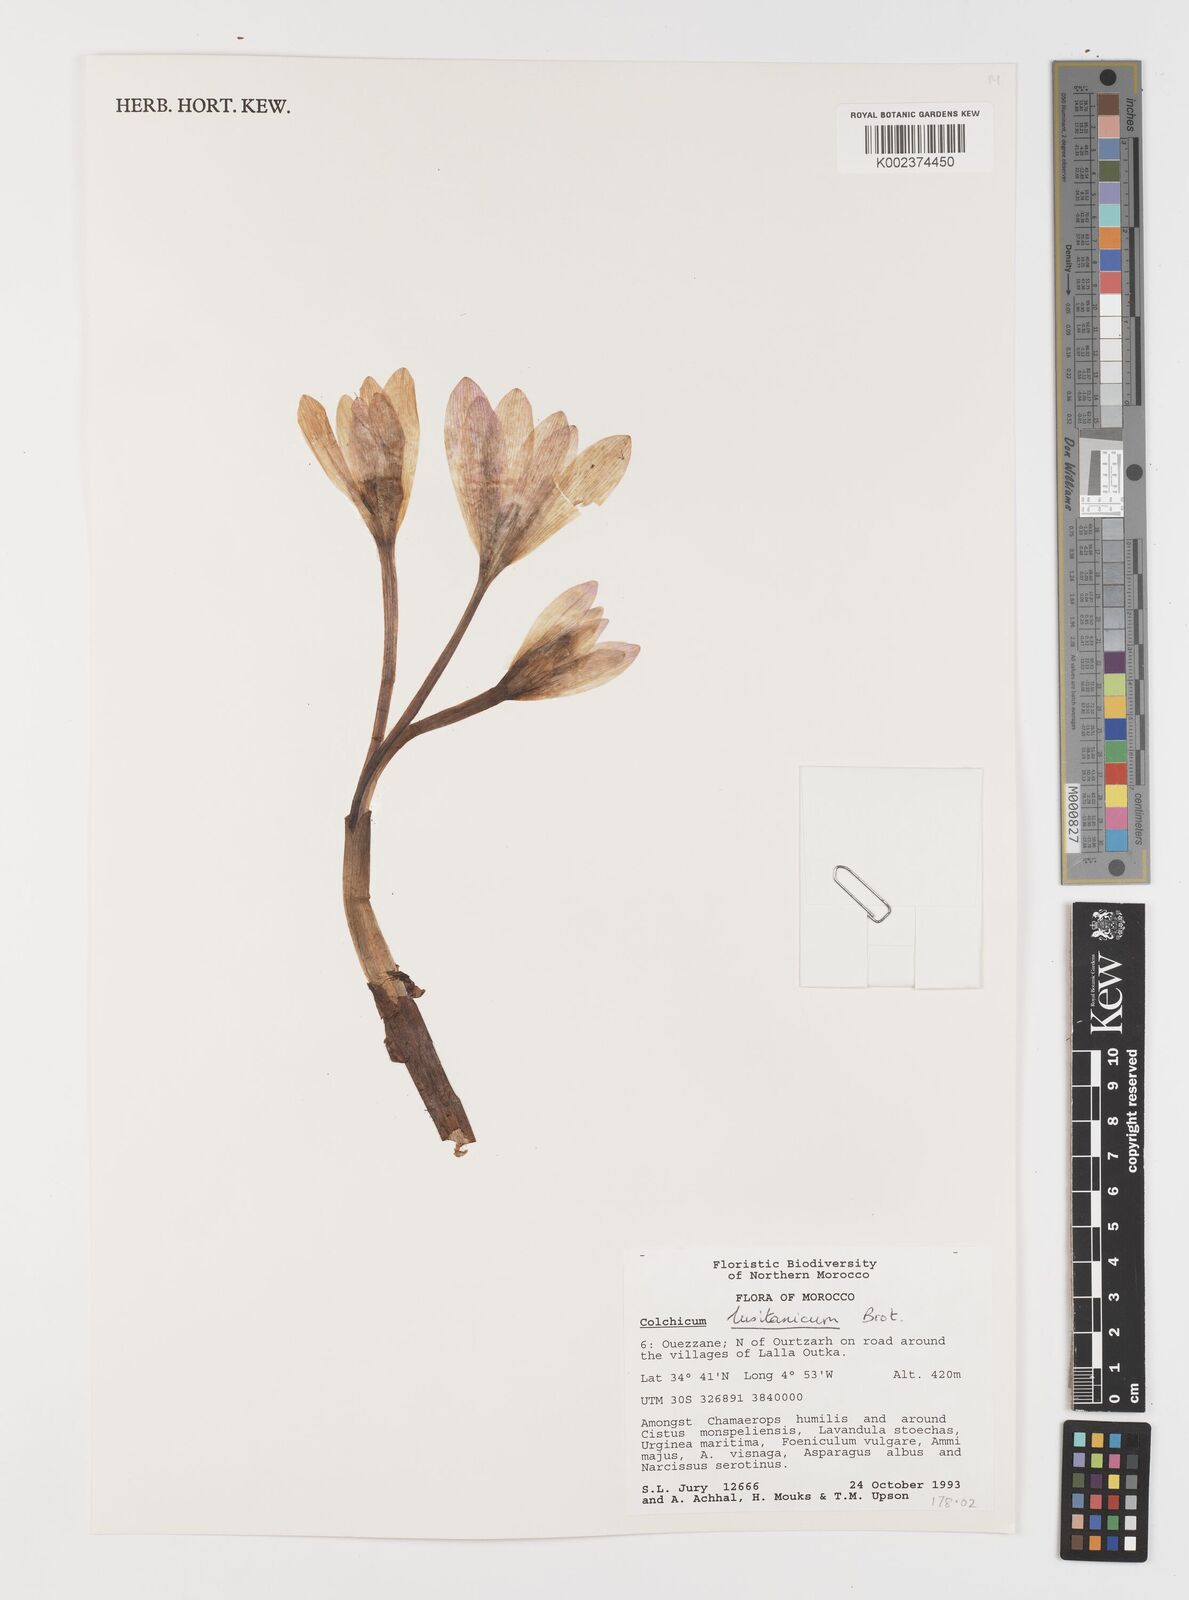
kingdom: Plantae
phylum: Tracheophyta
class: Liliopsida
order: Liliales
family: Colchicaceae
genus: Colchicum
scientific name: Colchicum lusitanum
